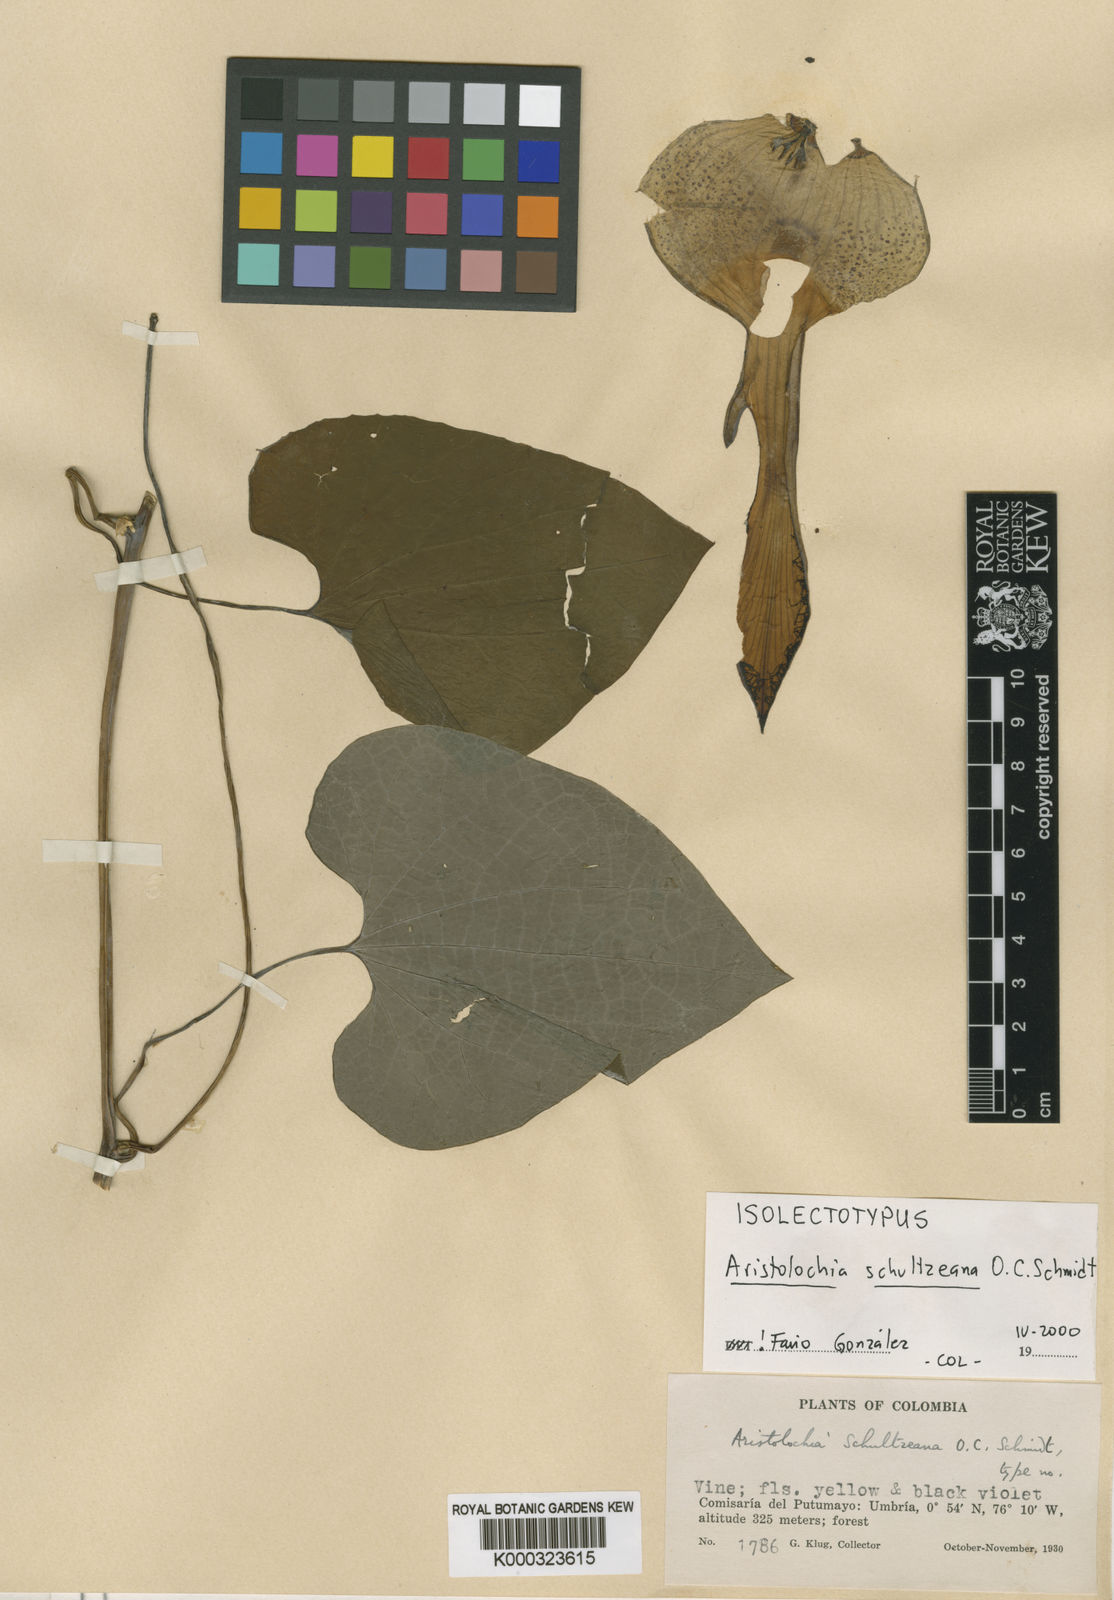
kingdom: Plantae
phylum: Tracheophyta
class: Magnoliopsida
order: Piperales
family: Aristolochiaceae
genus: Aristolochia
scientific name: Aristolochia schultzeana
